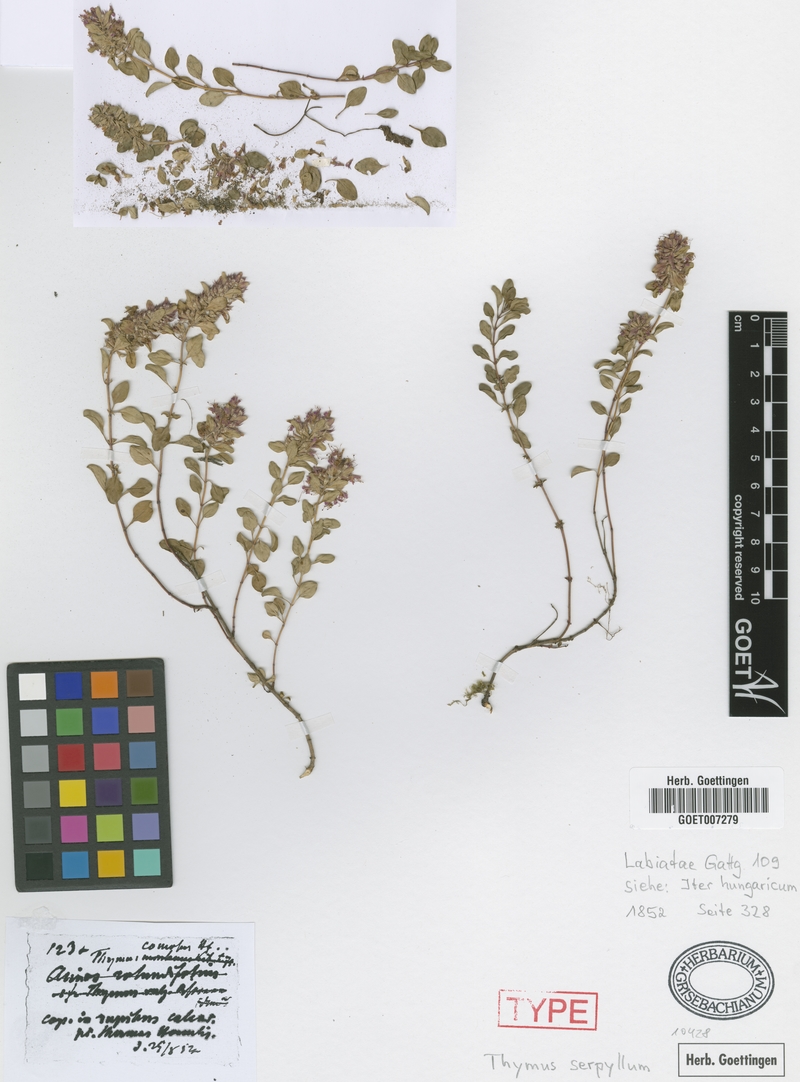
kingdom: Plantae
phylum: Tracheophyta
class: Magnoliopsida
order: Lamiales
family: Lamiaceae
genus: Thymus
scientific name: Thymus comosus
